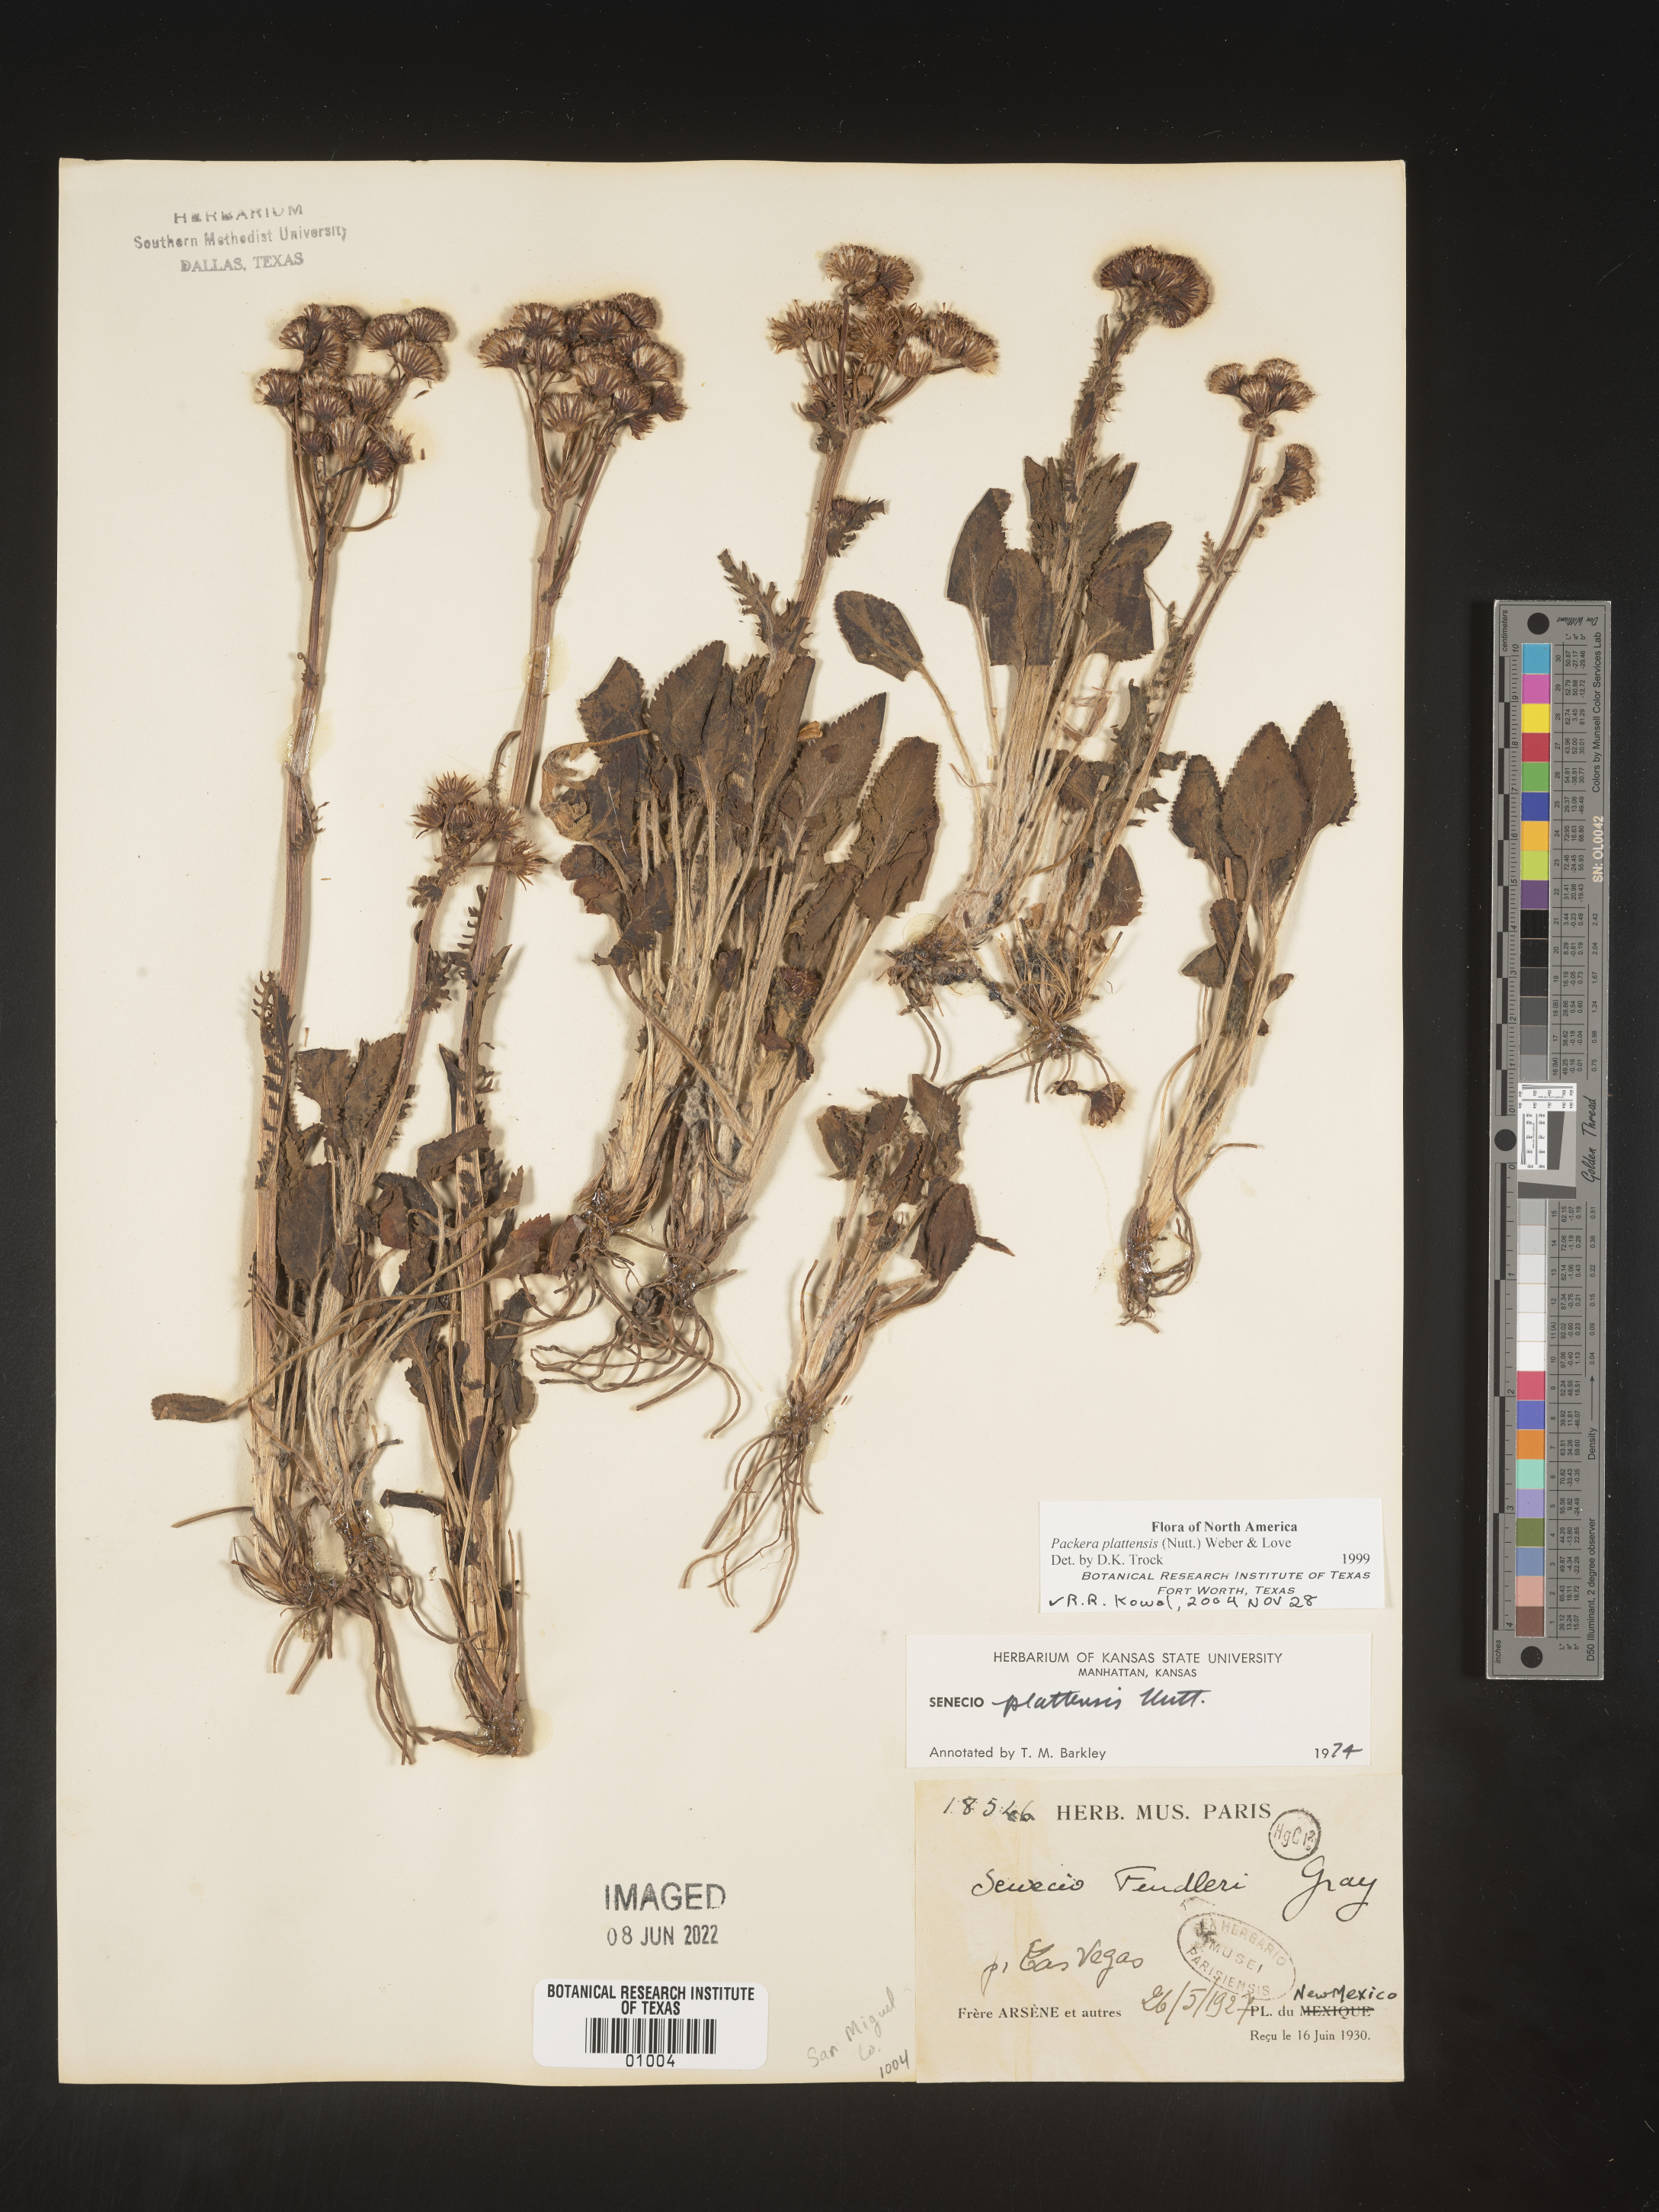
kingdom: Plantae
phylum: Tracheophyta
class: Magnoliopsida
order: Asterales
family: Asteraceae
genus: Packera
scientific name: Packera plattensis
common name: Prairie groundsel
